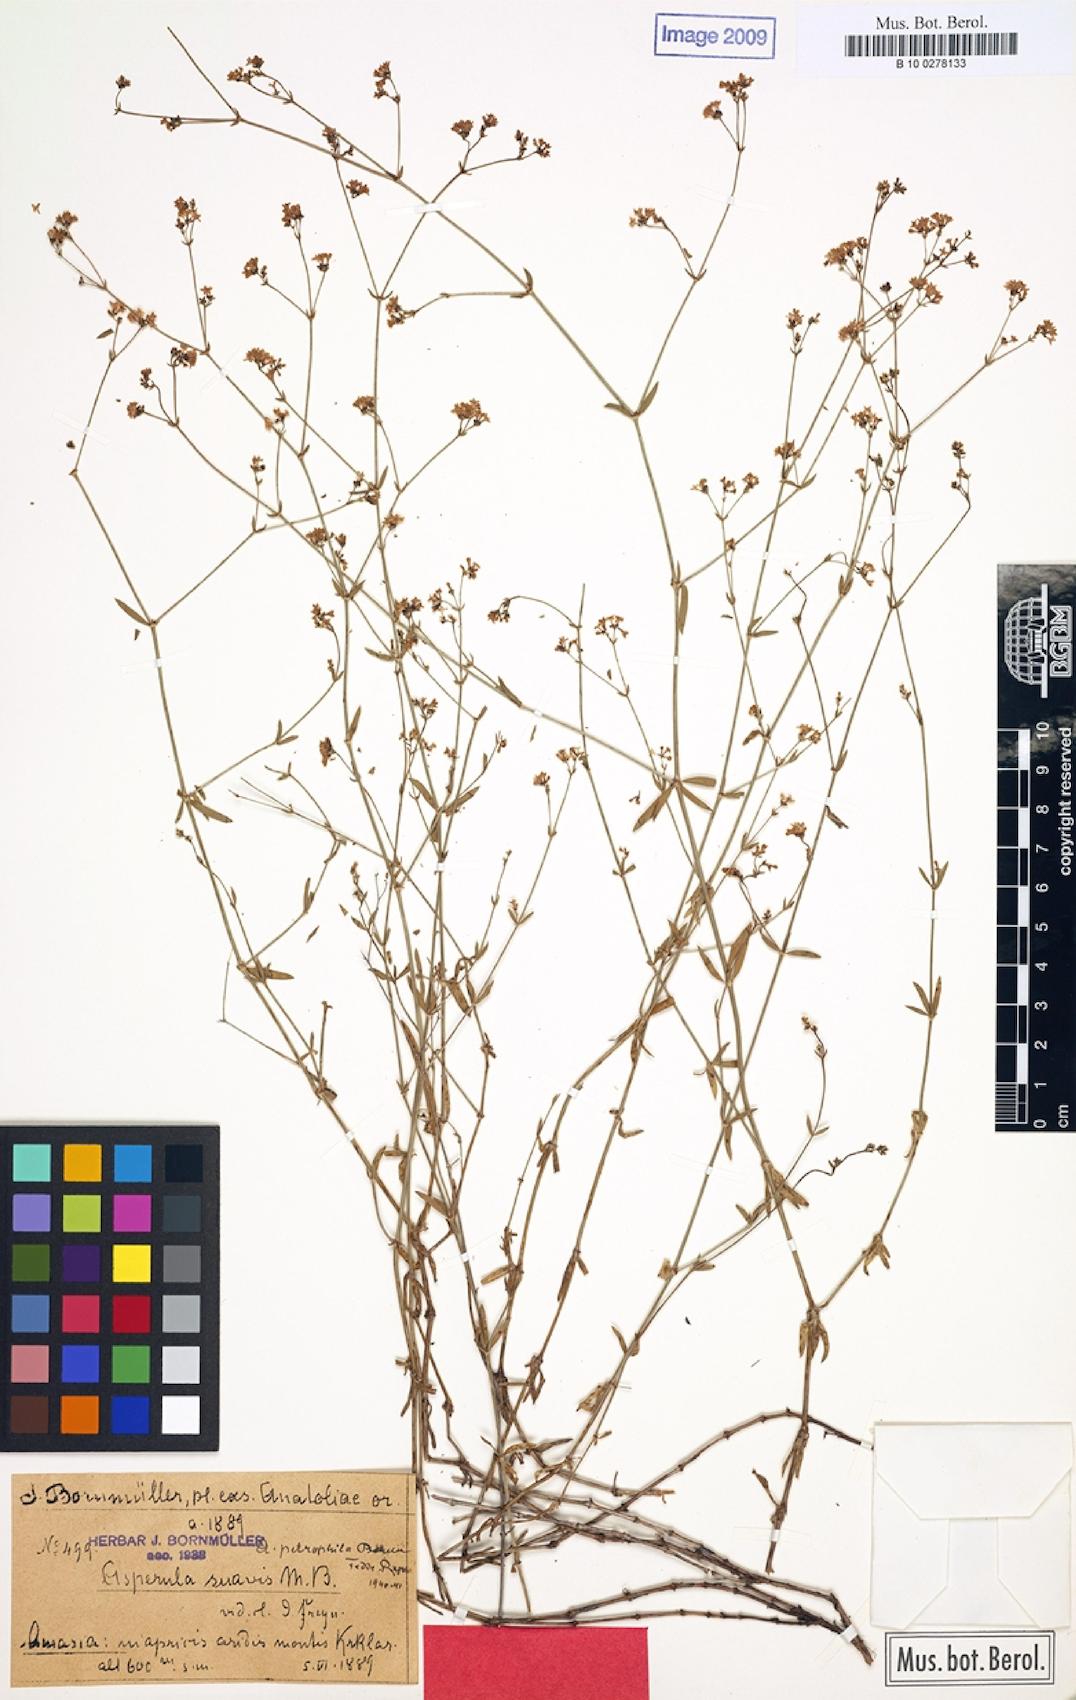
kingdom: Plantae
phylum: Tracheophyta
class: Magnoliopsida
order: Gentianales
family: Rubiaceae
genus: Asperula
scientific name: Asperula suavis
